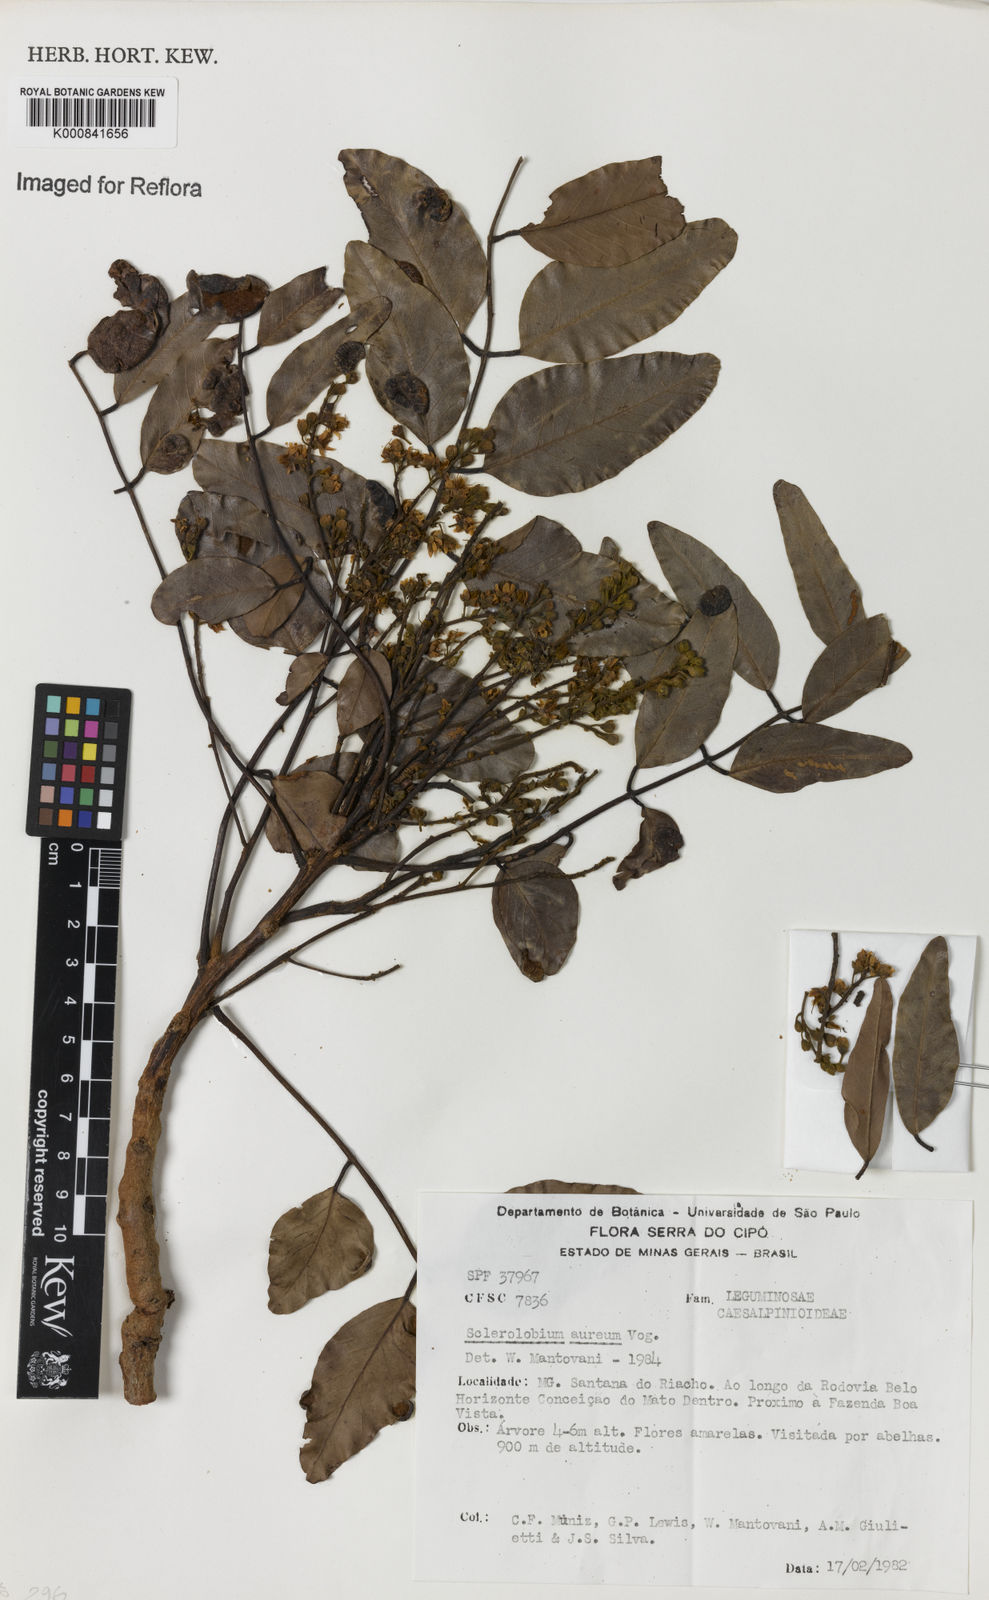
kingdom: Plantae
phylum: Tracheophyta
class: Magnoliopsida
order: Fabales
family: Fabaceae
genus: Tachigali
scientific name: Tachigali aurea
